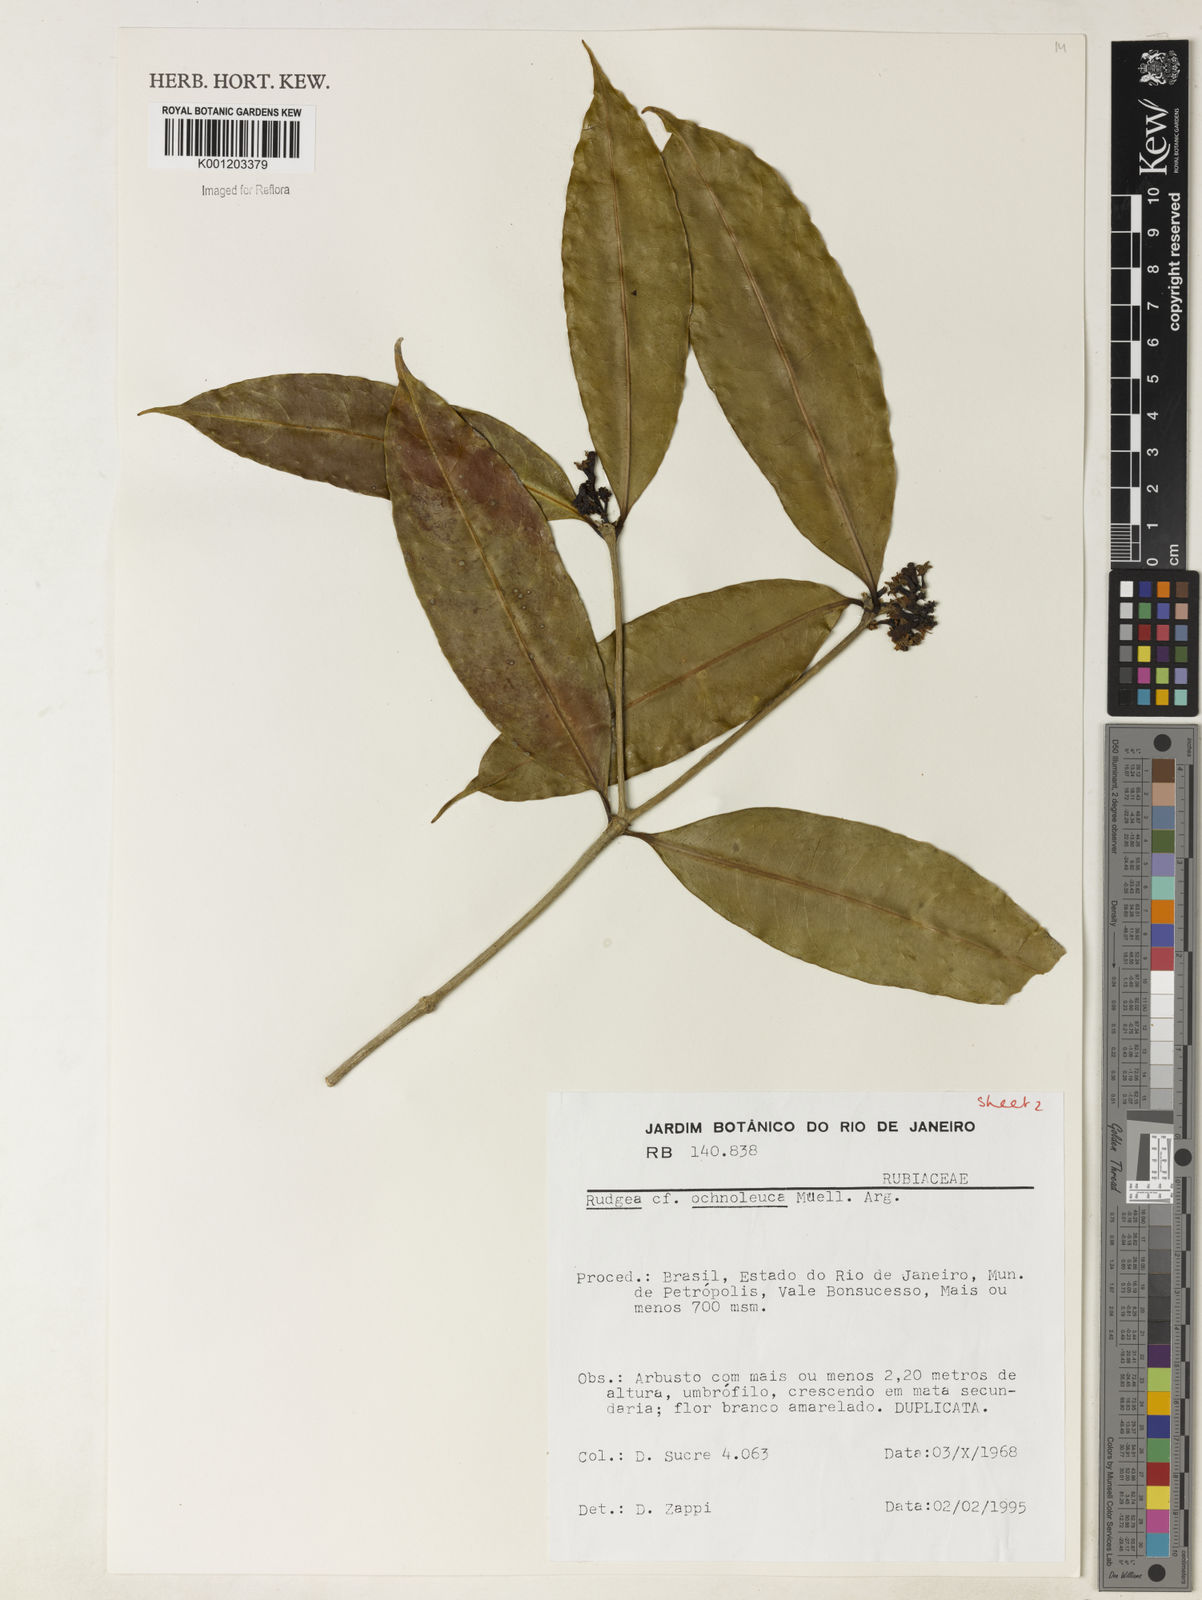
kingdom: Plantae
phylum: Tracheophyta
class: Magnoliopsida
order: Gentianales
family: Rubiaceae
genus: Rudgea
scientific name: Rudgea
